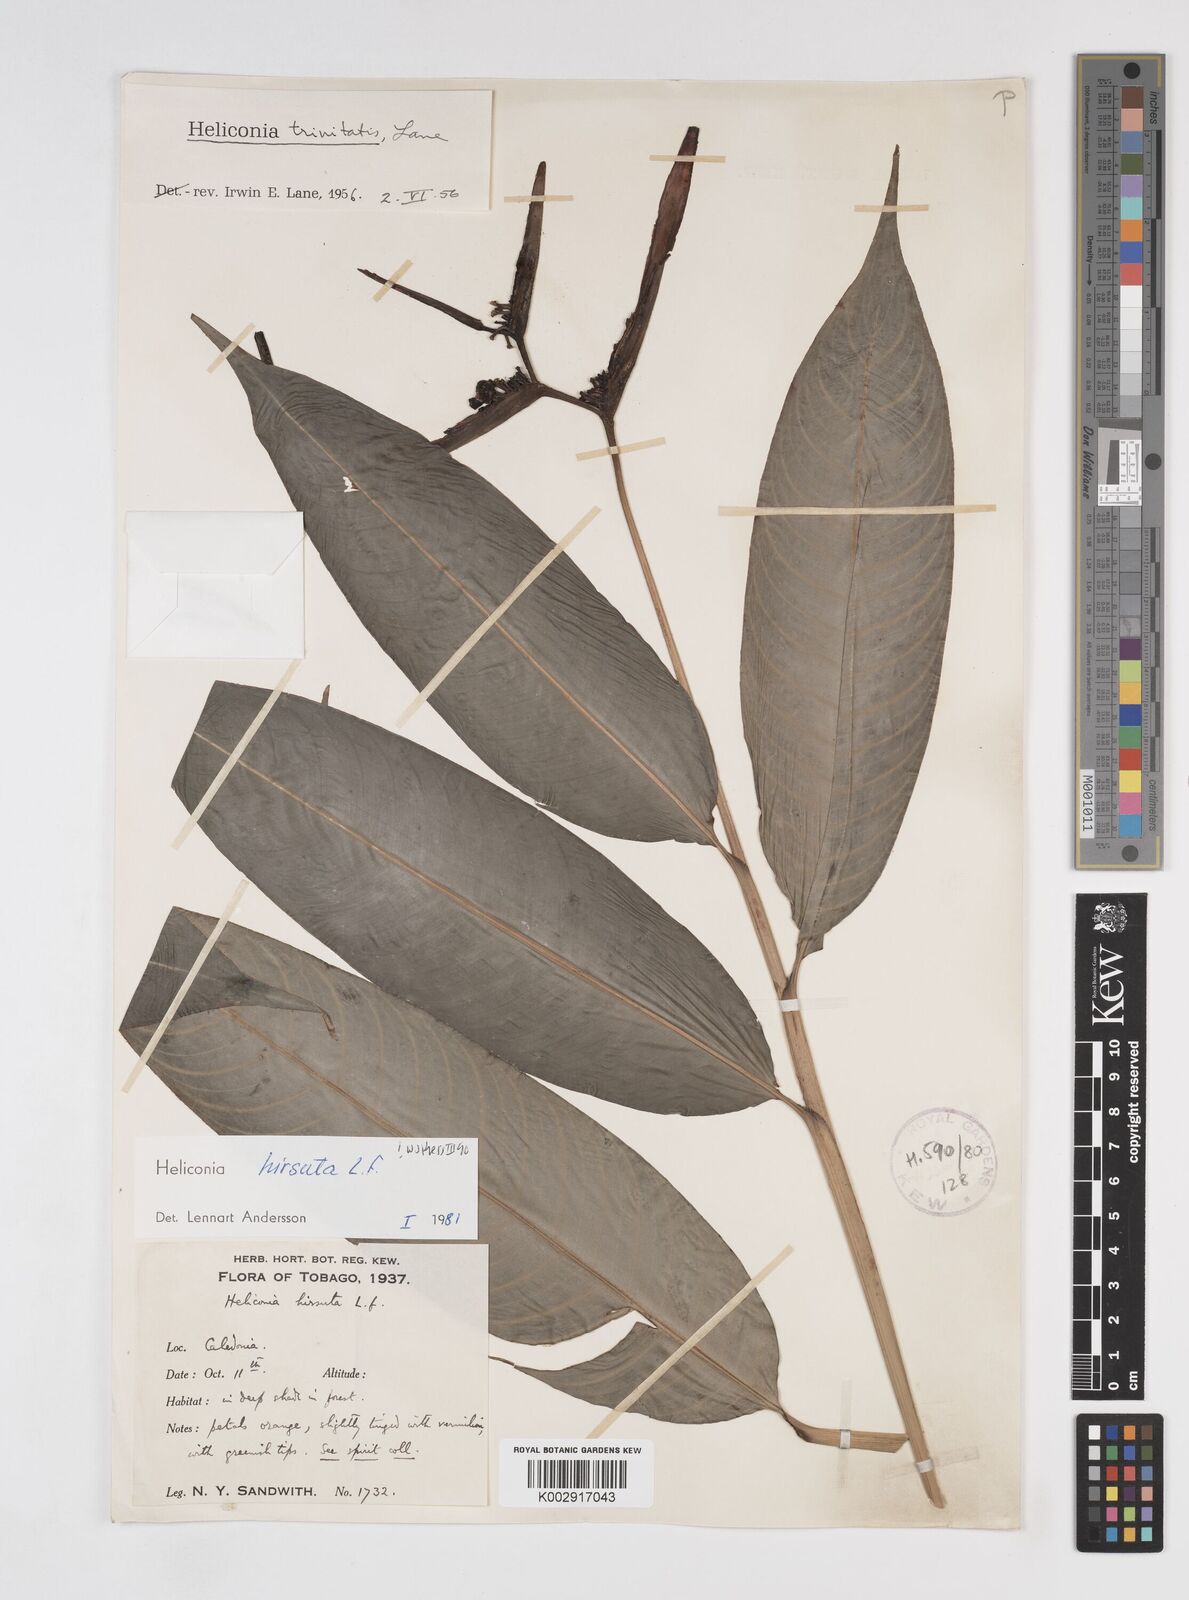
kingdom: Plantae
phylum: Tracheophyta
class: Liliopsida
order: Zingiberales
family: Heliconiaceae
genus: Heliconia
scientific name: Heliconia hirsuta
